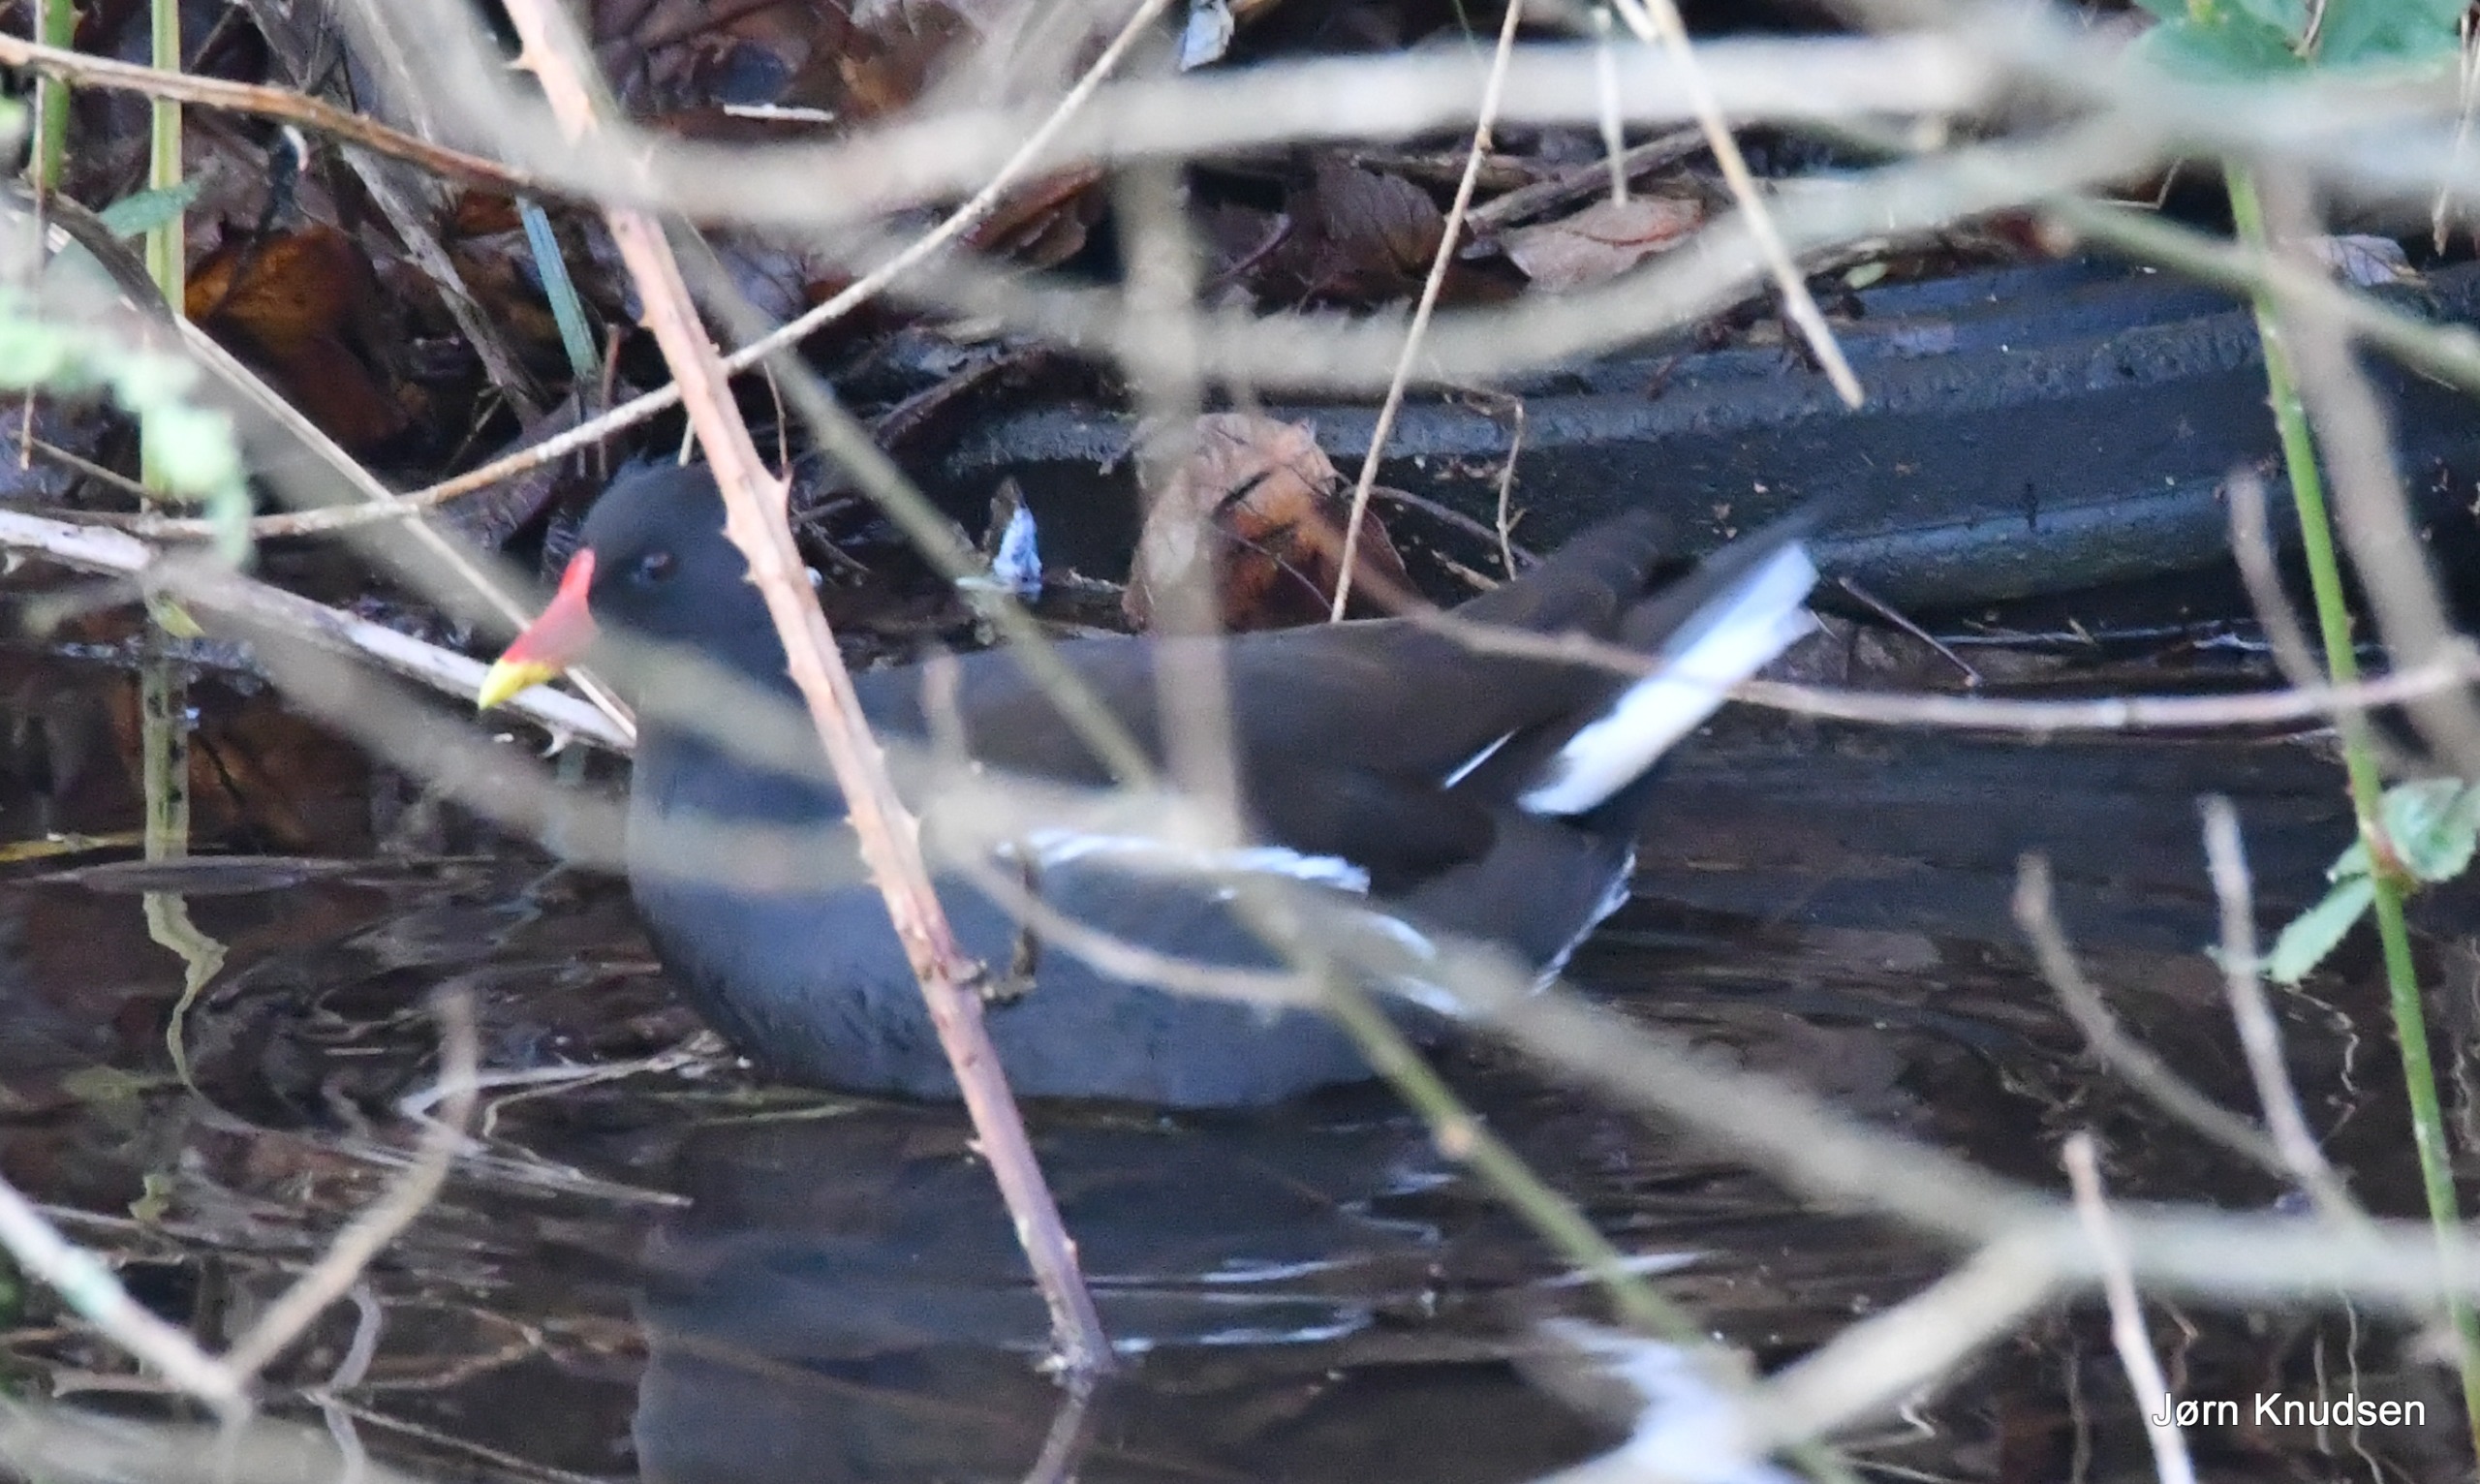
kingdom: Animalia
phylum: Chordata
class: Aves
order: Gruiformes
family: Rallidae
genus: Gallinula
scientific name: Gallinula chloropus
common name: Grønbenet rørhøne
